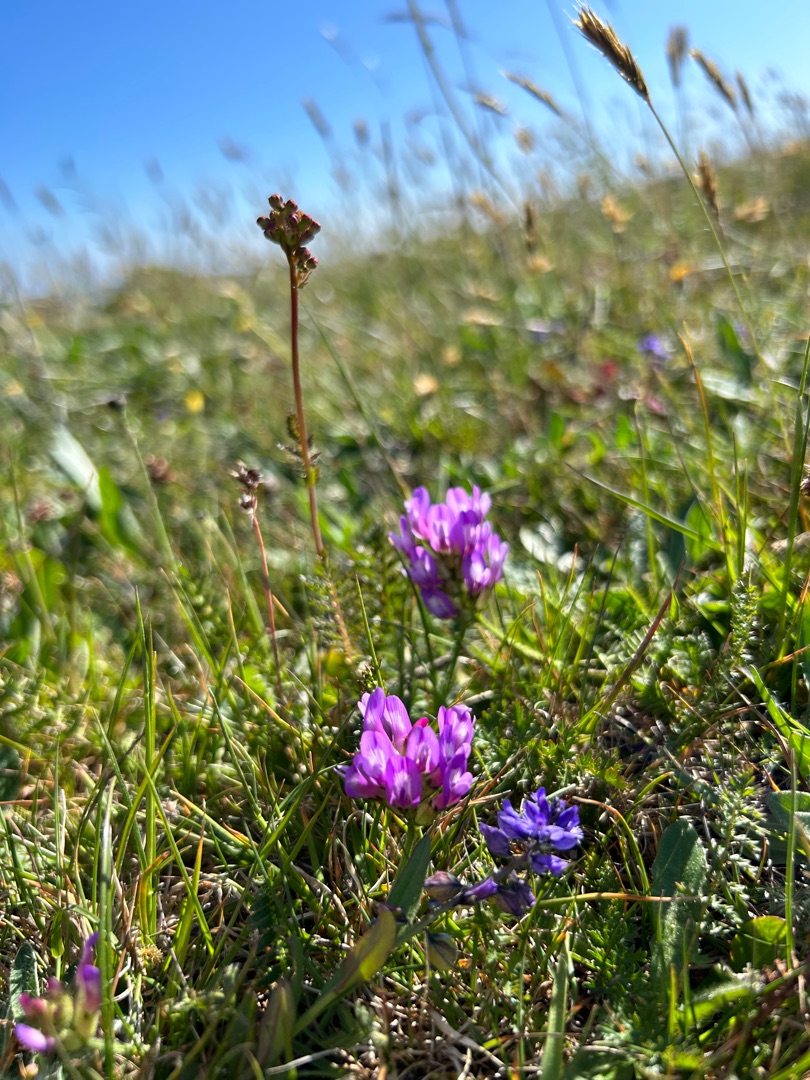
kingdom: Plantae
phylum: Tracheophyta
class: Magnoliopsida
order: Fabales
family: Fabaceae
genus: Astragalus
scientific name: Astragalus danicus
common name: Dansk astragel
